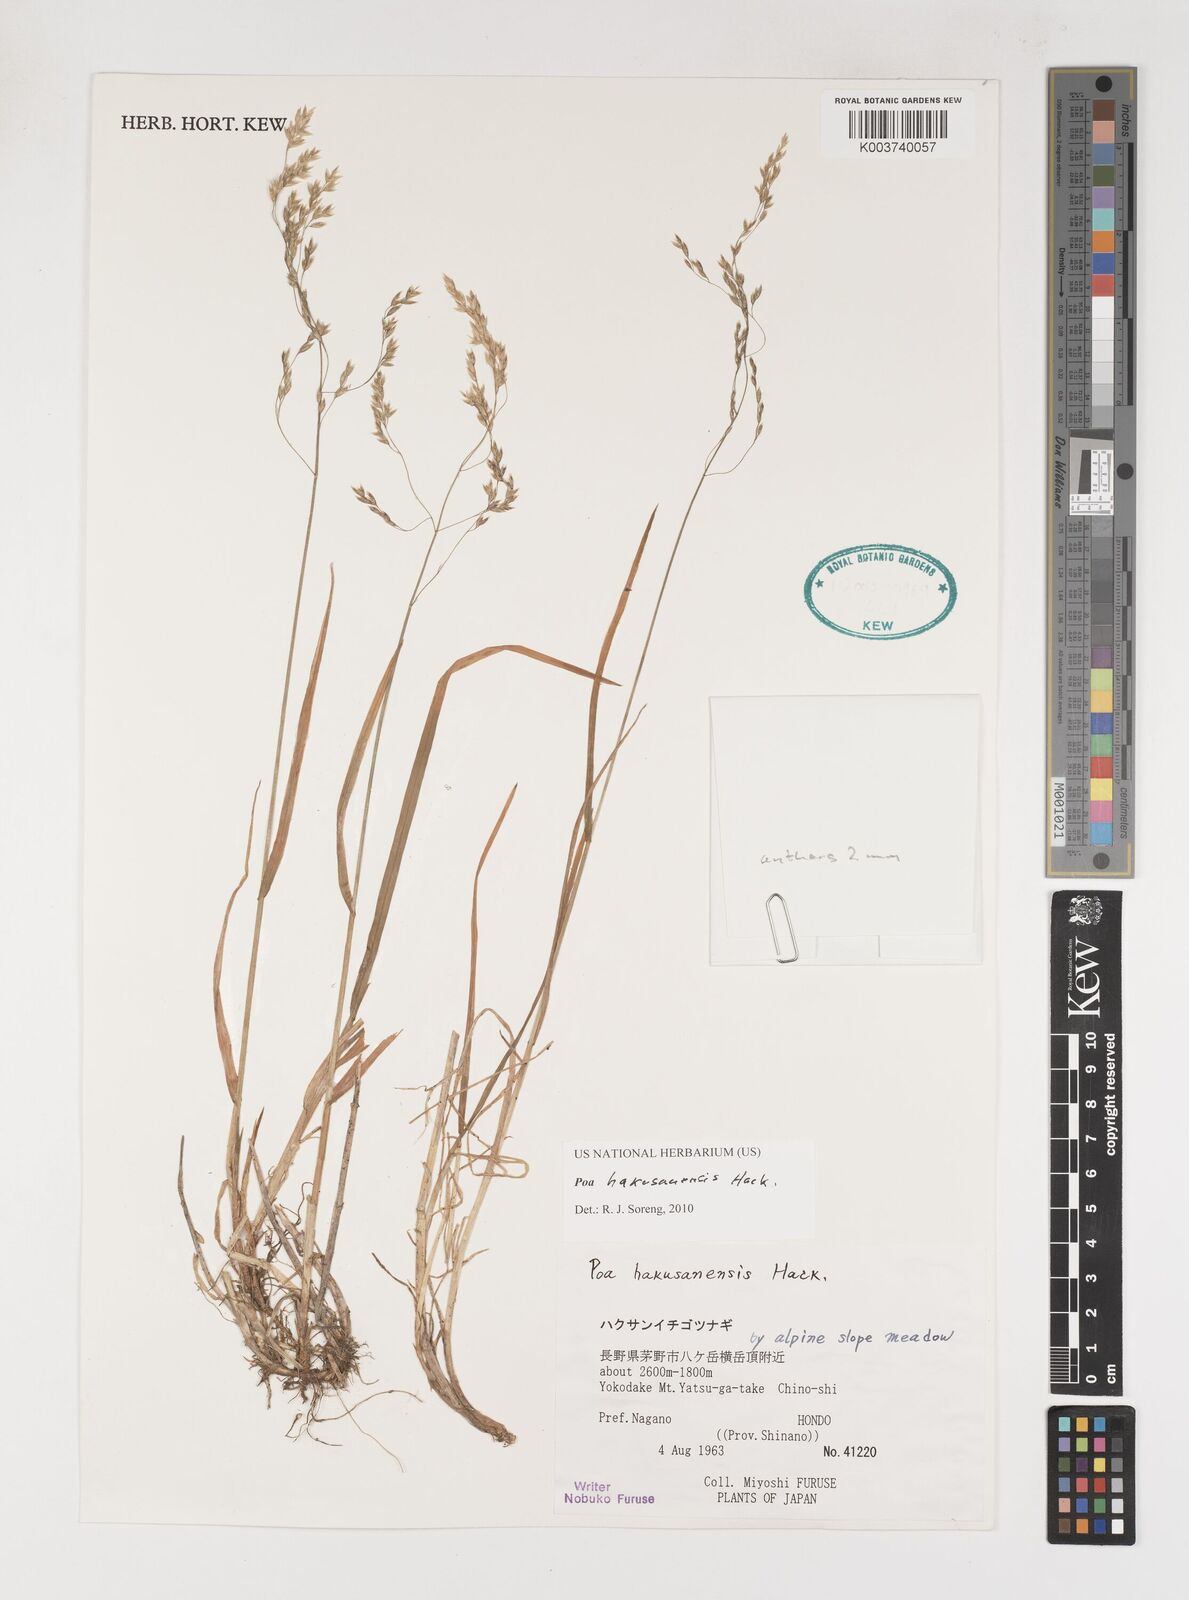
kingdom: Plantae
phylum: Tracheophyta
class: Liliopsida
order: Poales
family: Poaceae
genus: Poa
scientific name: Poa hakusanensis
